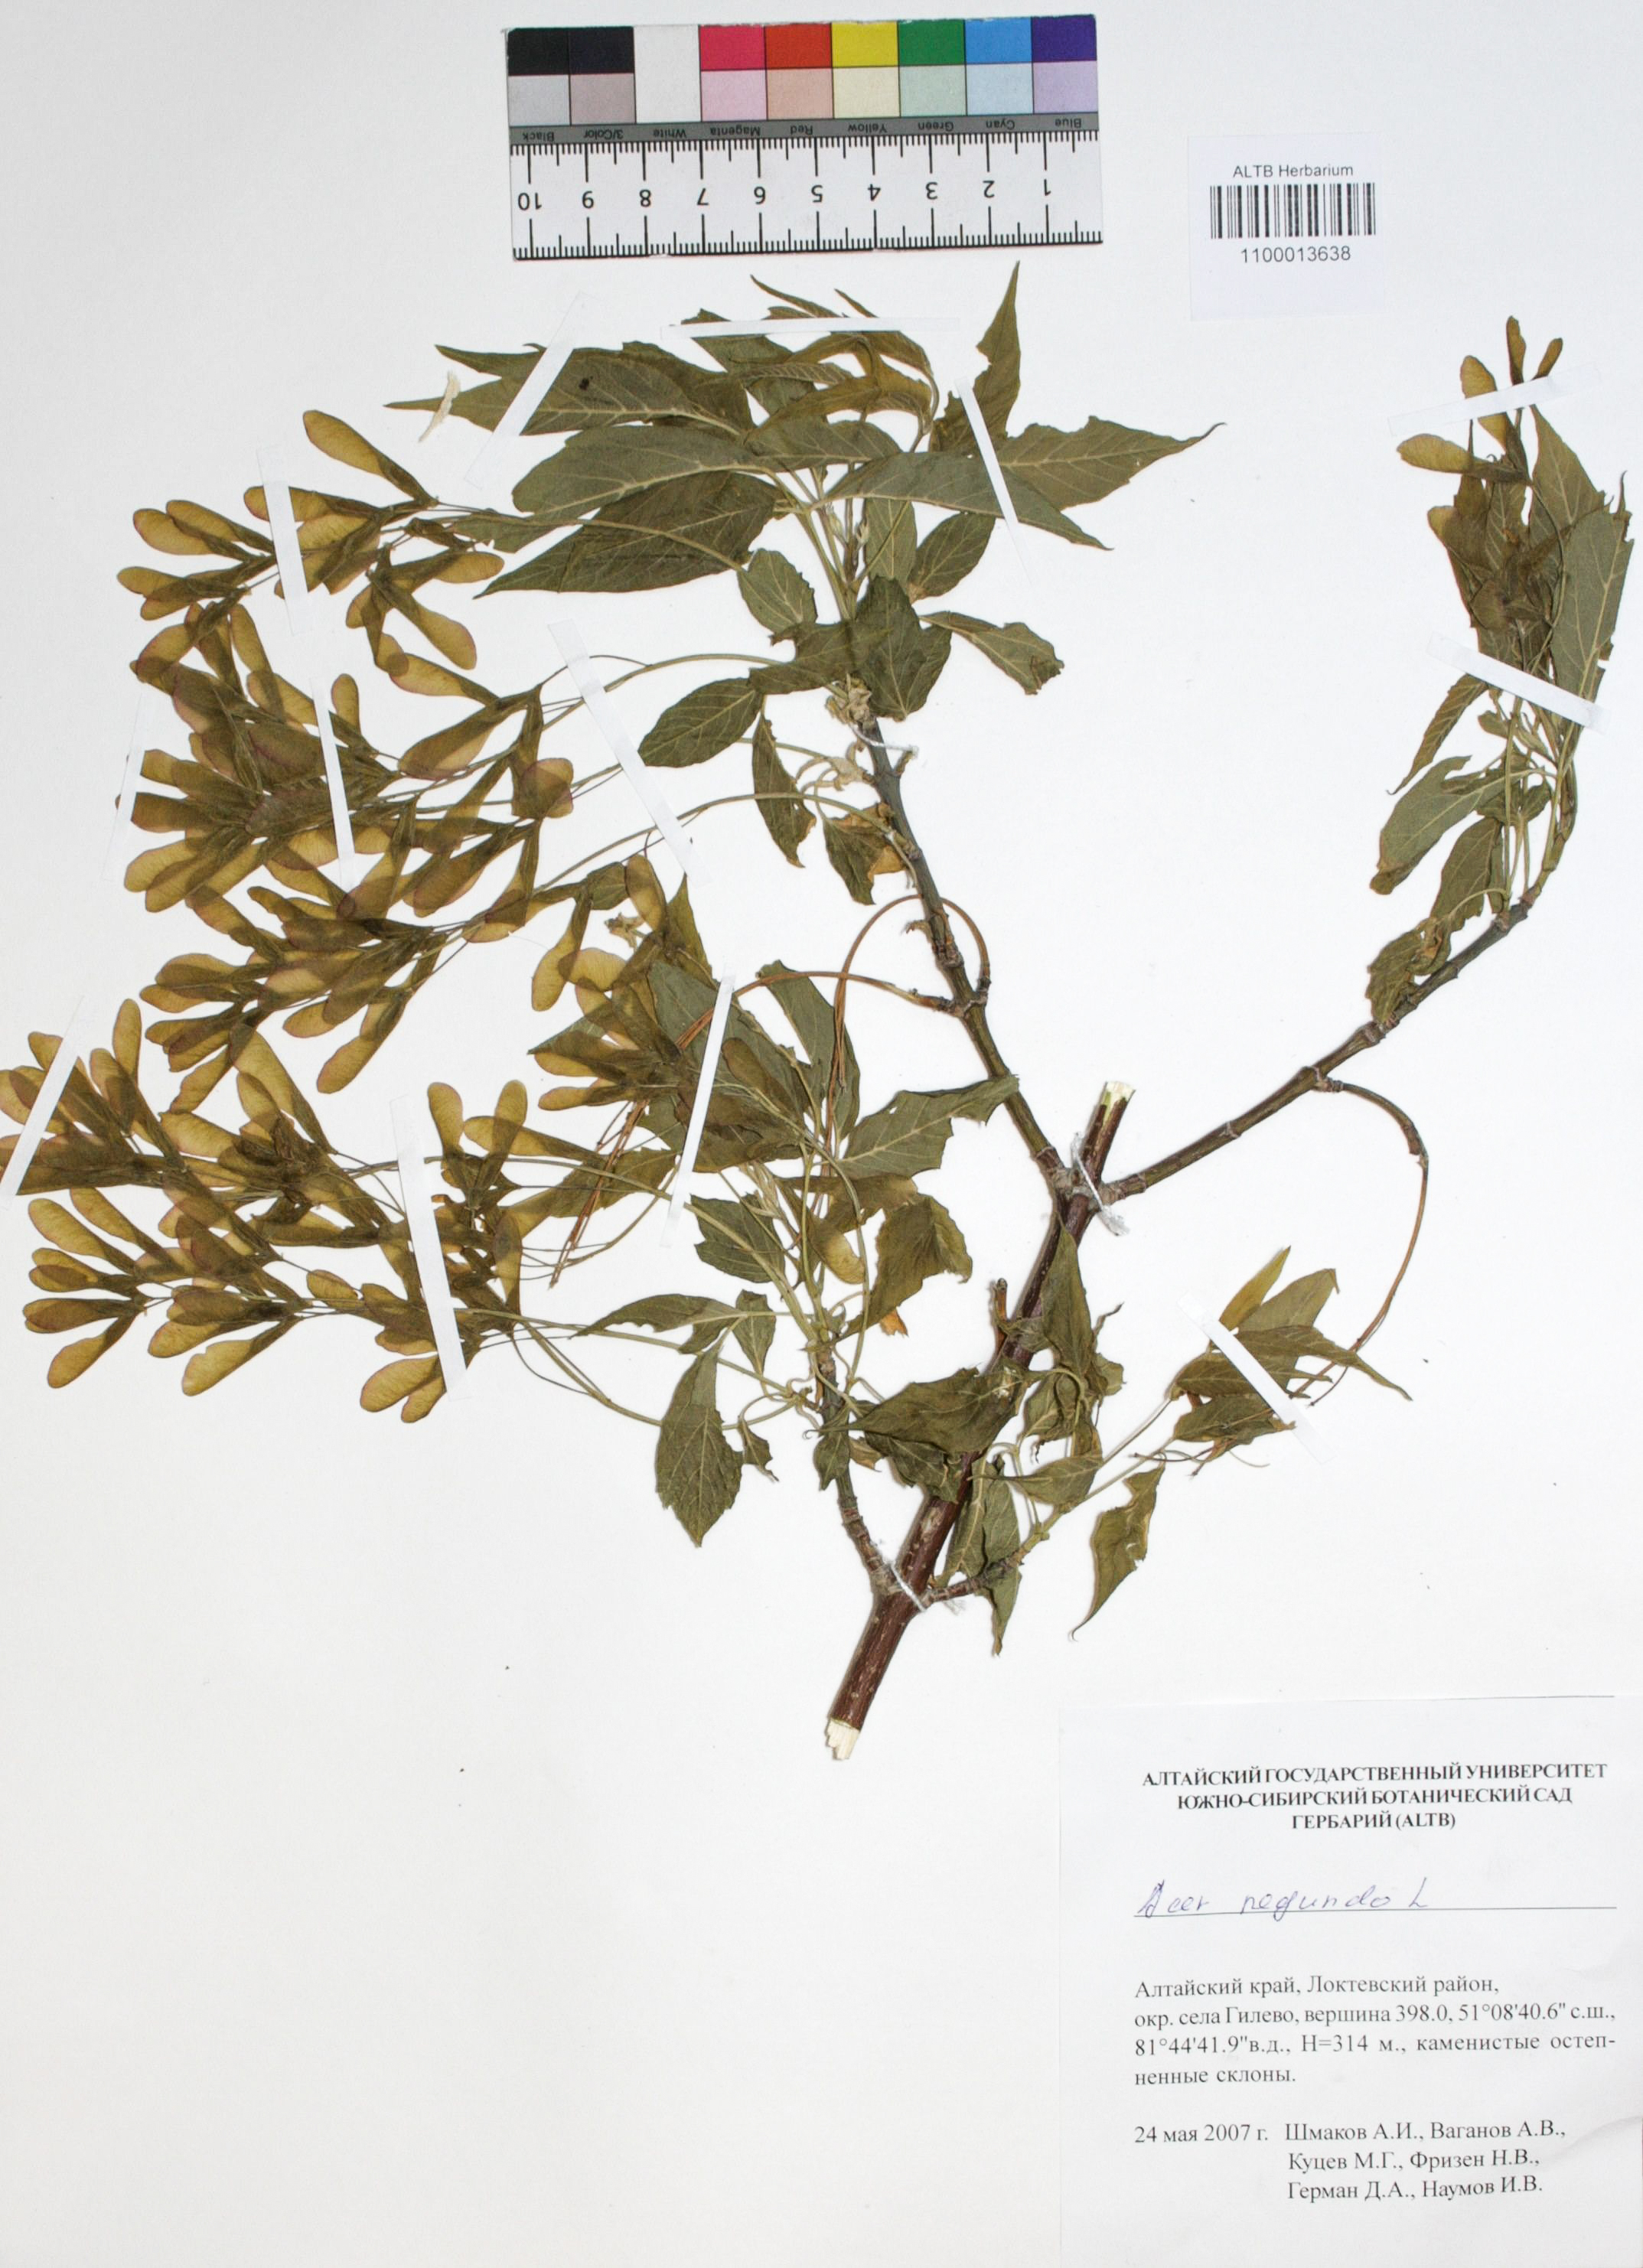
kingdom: Plantae
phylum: Tracheophyta
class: Magnoliopsida
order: Sapindales
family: Sapindaceae
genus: Acer
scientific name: Acer negundo
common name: Ashleaf maple
